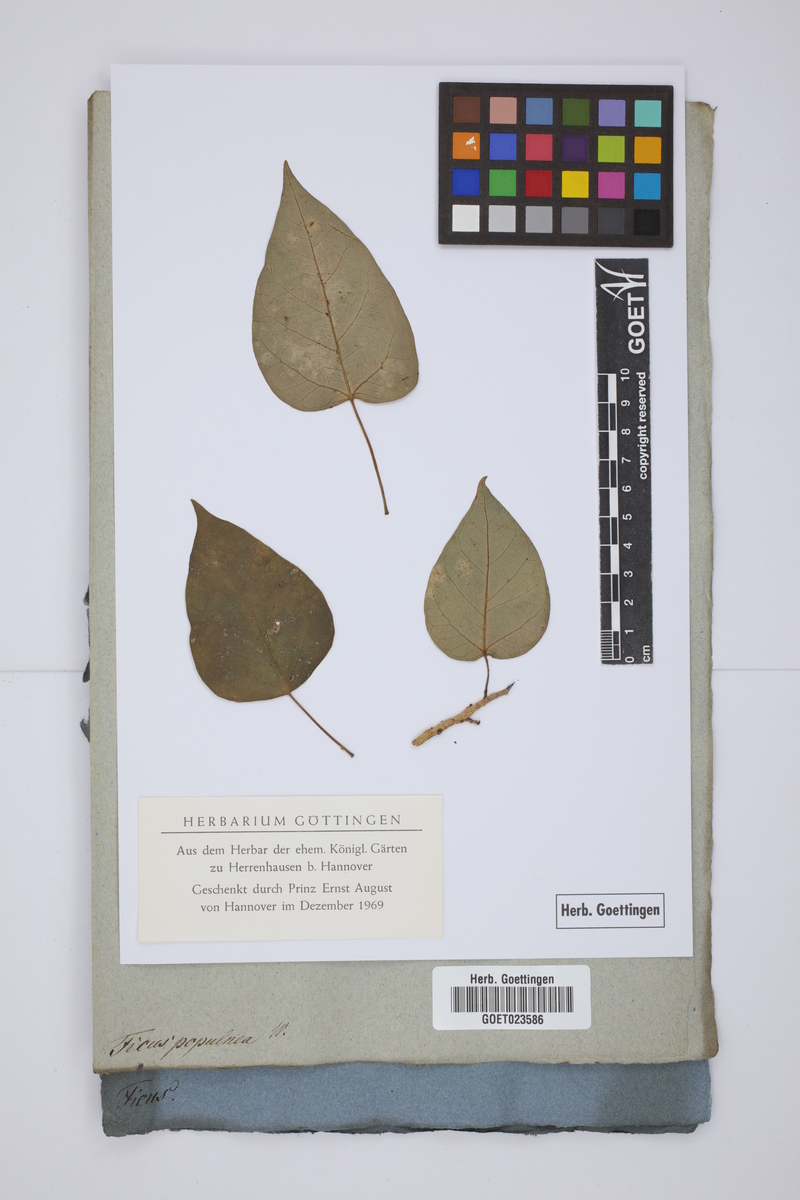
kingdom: Plantae
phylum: Tracheophyta
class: Magnoliopsida
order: Rosales
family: Moraceae
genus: Ficus
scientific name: Ficus citrifolia
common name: Strangler fig
